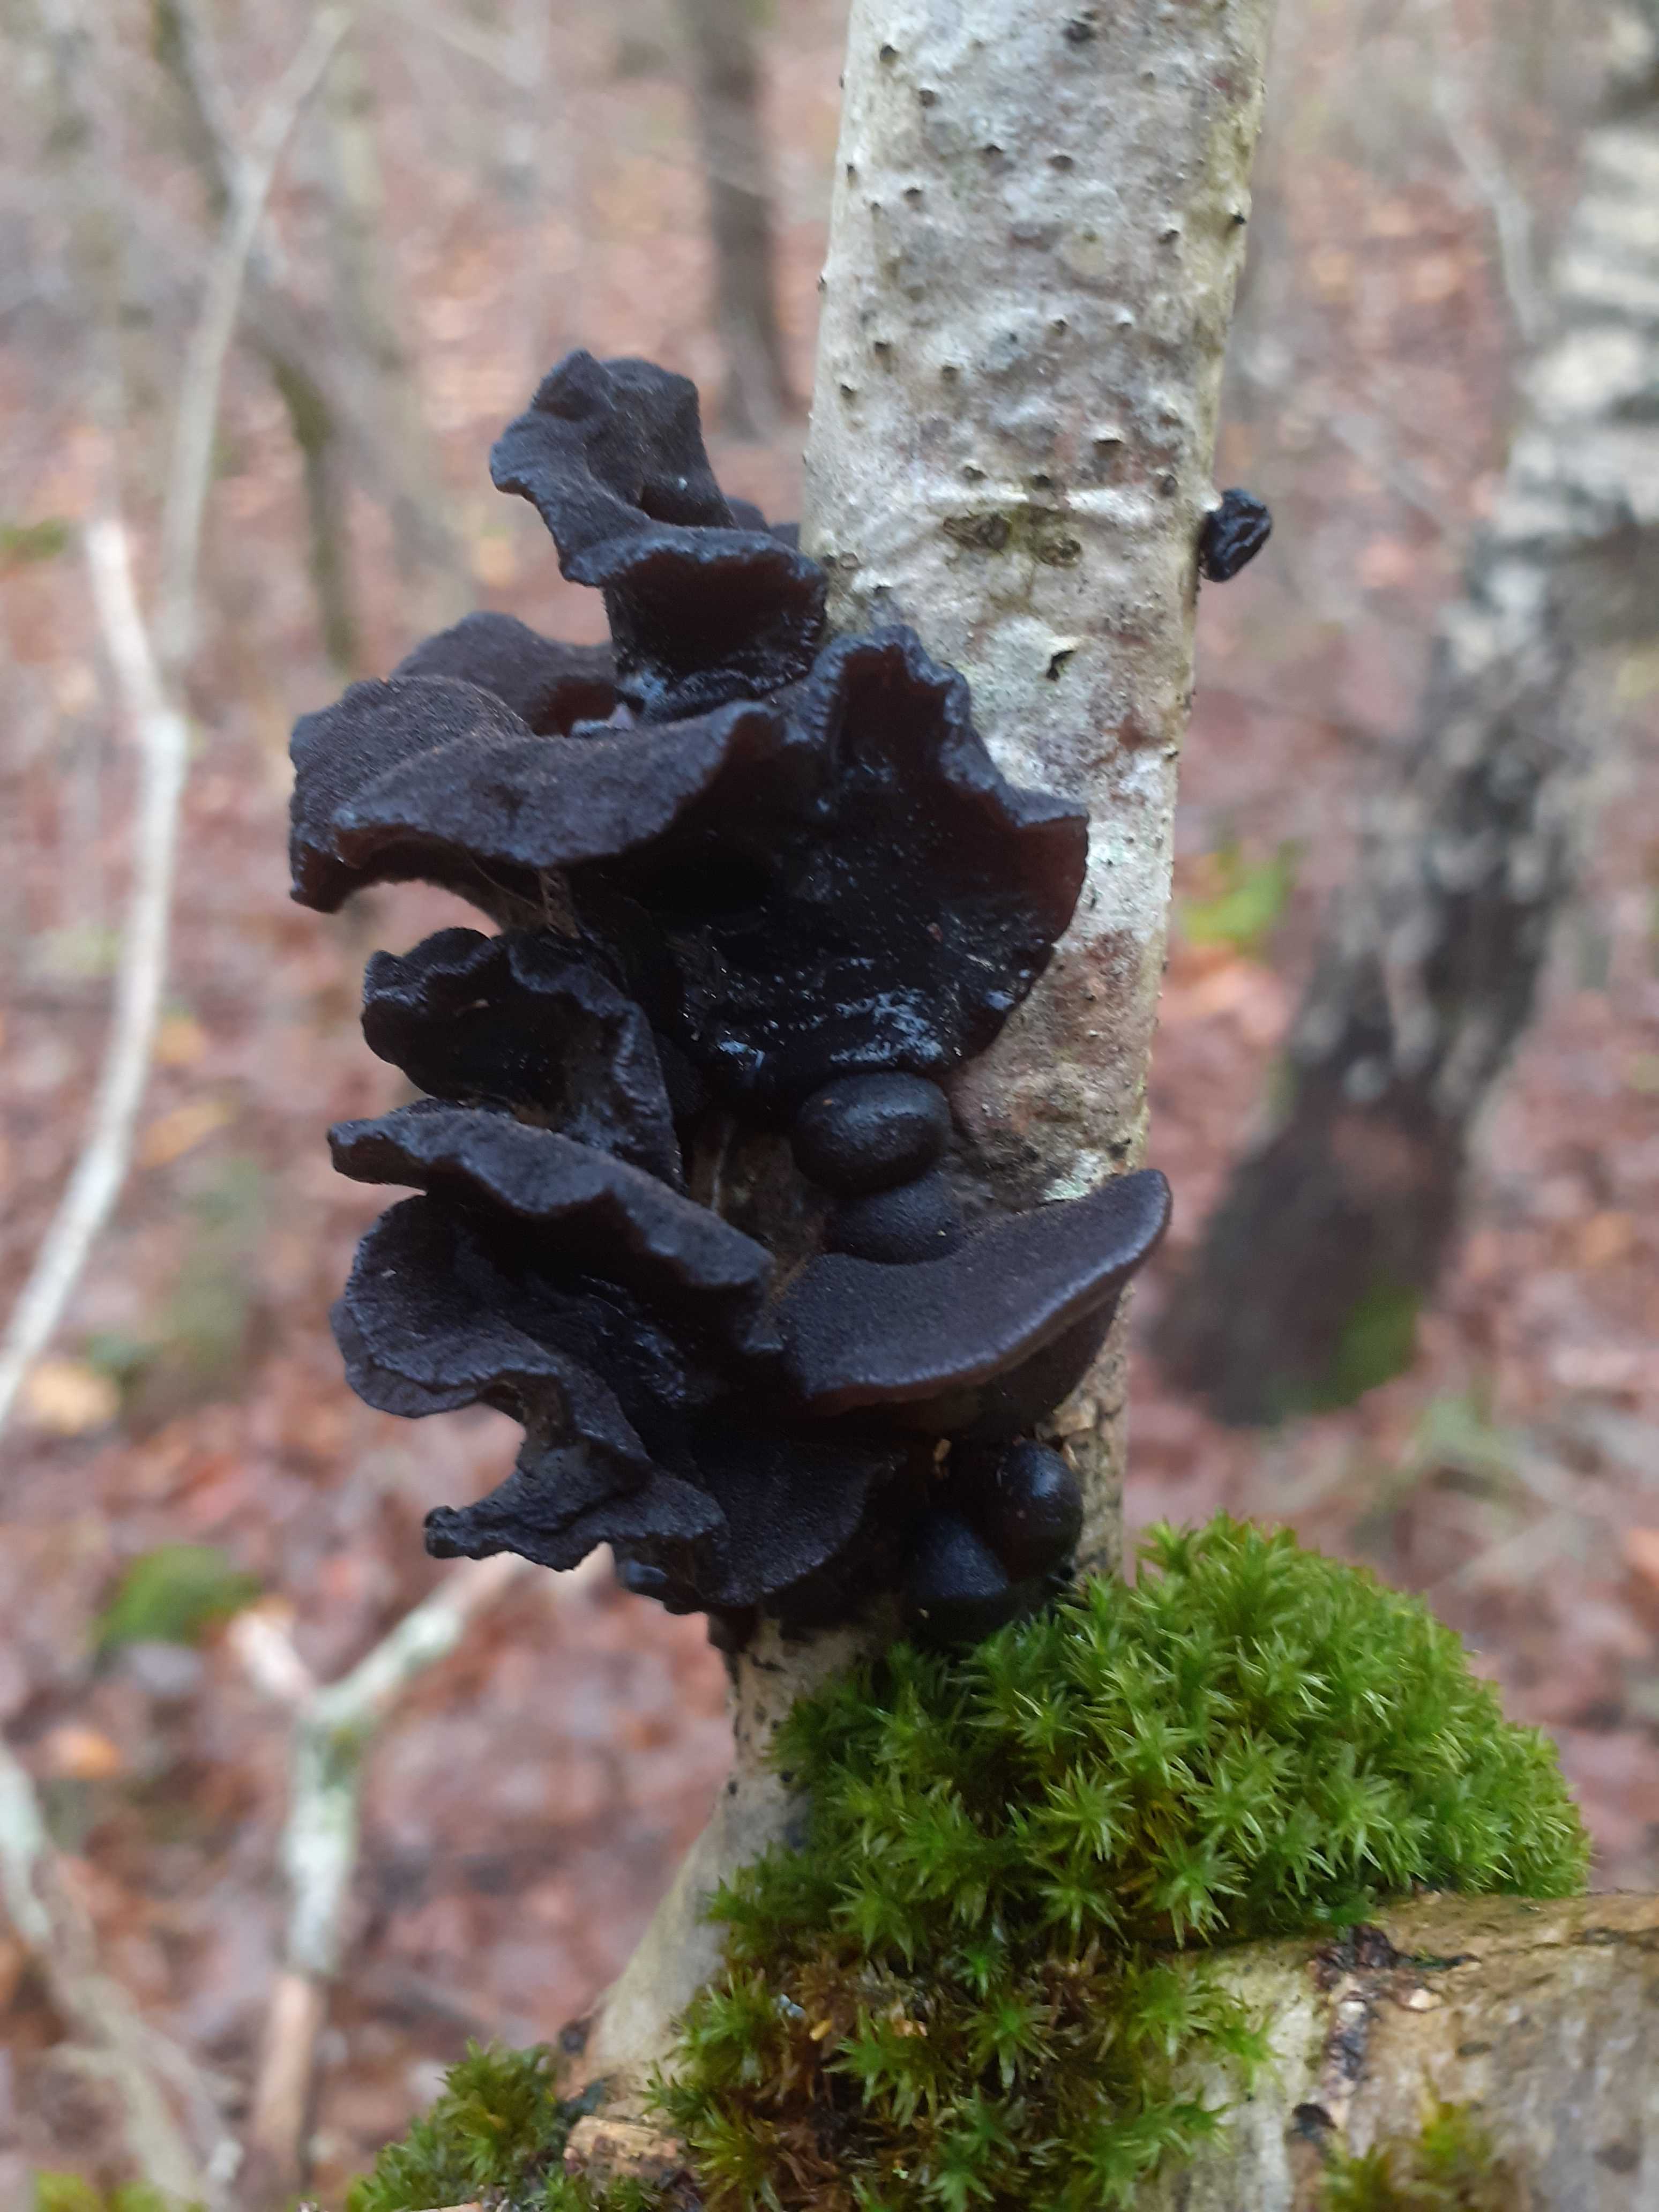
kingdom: Fungi
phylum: Basidiomycota
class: Agaricomycetes
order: Auriculariales
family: Auriculariaceae
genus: Exidia
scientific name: Exidia glandulosa
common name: ege-bævretop
